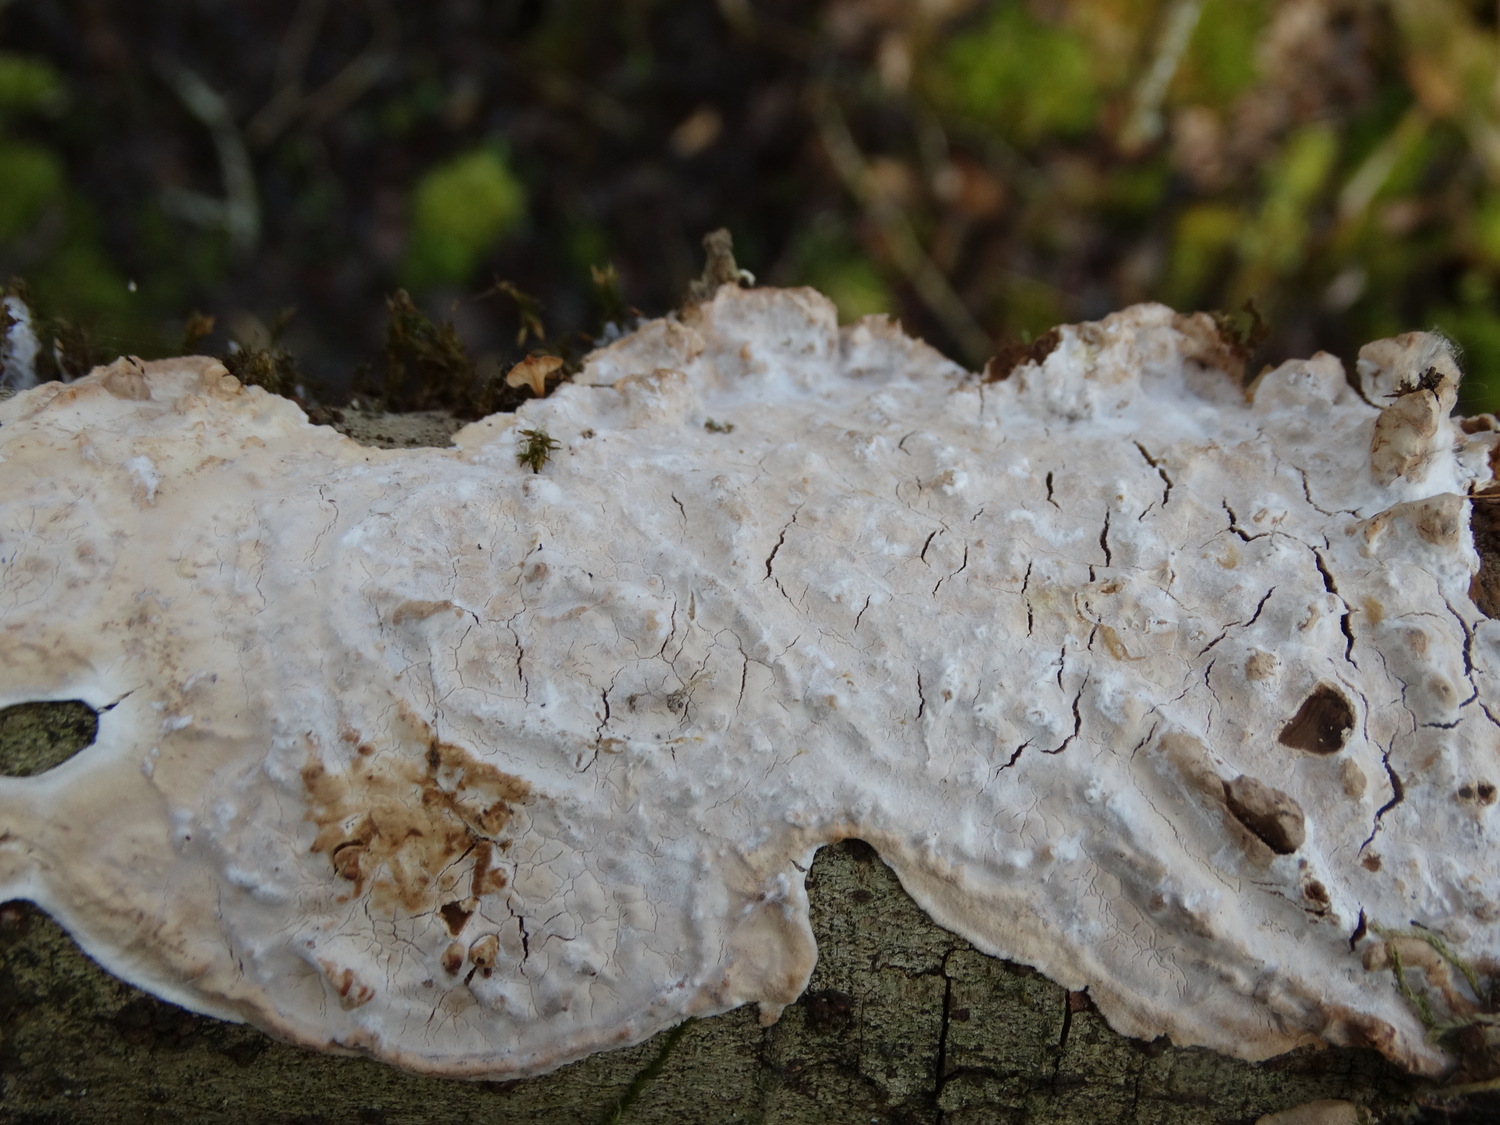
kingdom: Fungi
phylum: Basidiomycota
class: Agaricomycetes
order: Agaricales
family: Physalacriaceae
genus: Cylindrobasidium
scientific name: Cylindrobasidium evolvens
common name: sprækkehinde
